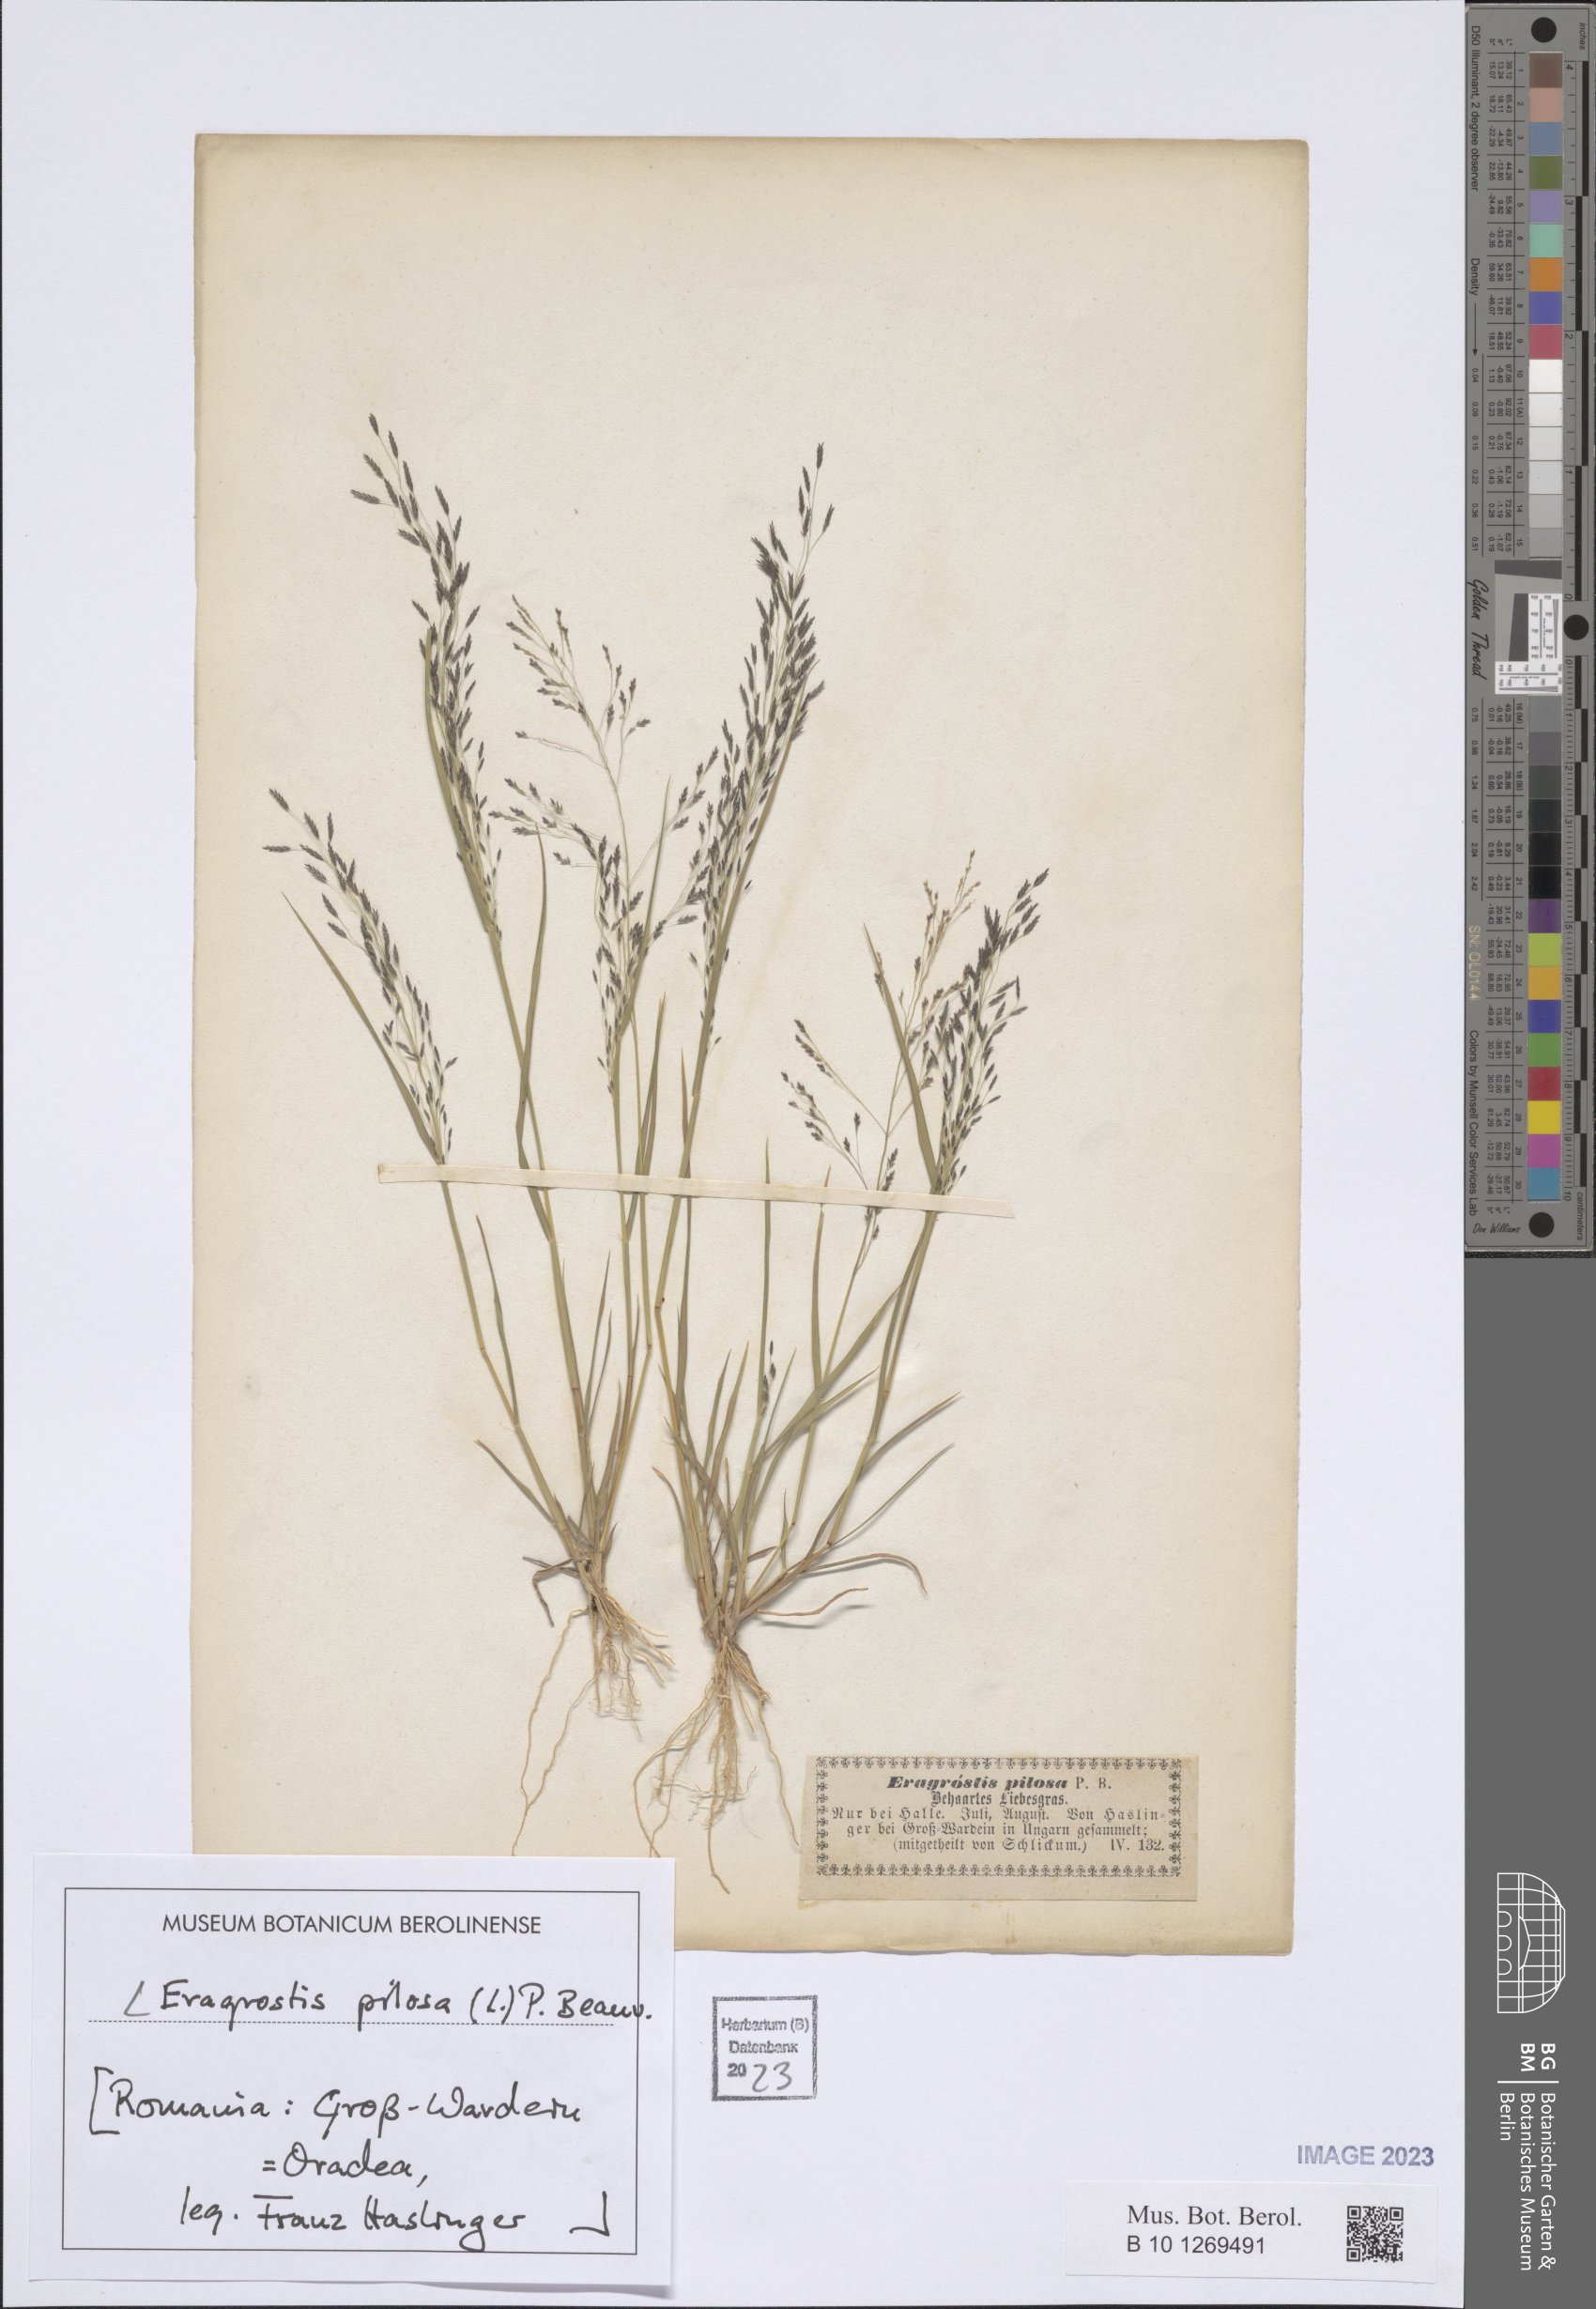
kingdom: Plantae
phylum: Tracheophyta
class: Liliopsida
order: Poales
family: Poaceae
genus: Eragrostis
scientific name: Eragrostis pilosa
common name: Indian lovegrass
